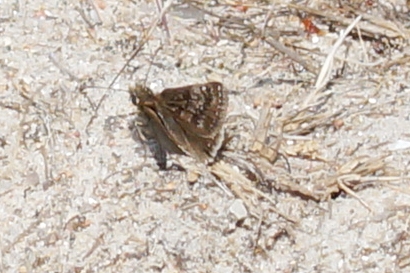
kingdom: Animalia
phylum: Arthropoda
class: Insecta
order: Lepidoptera
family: Hesperiidae
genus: Erynnis
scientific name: Erynnis tages
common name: Gråbåndet bredpande
